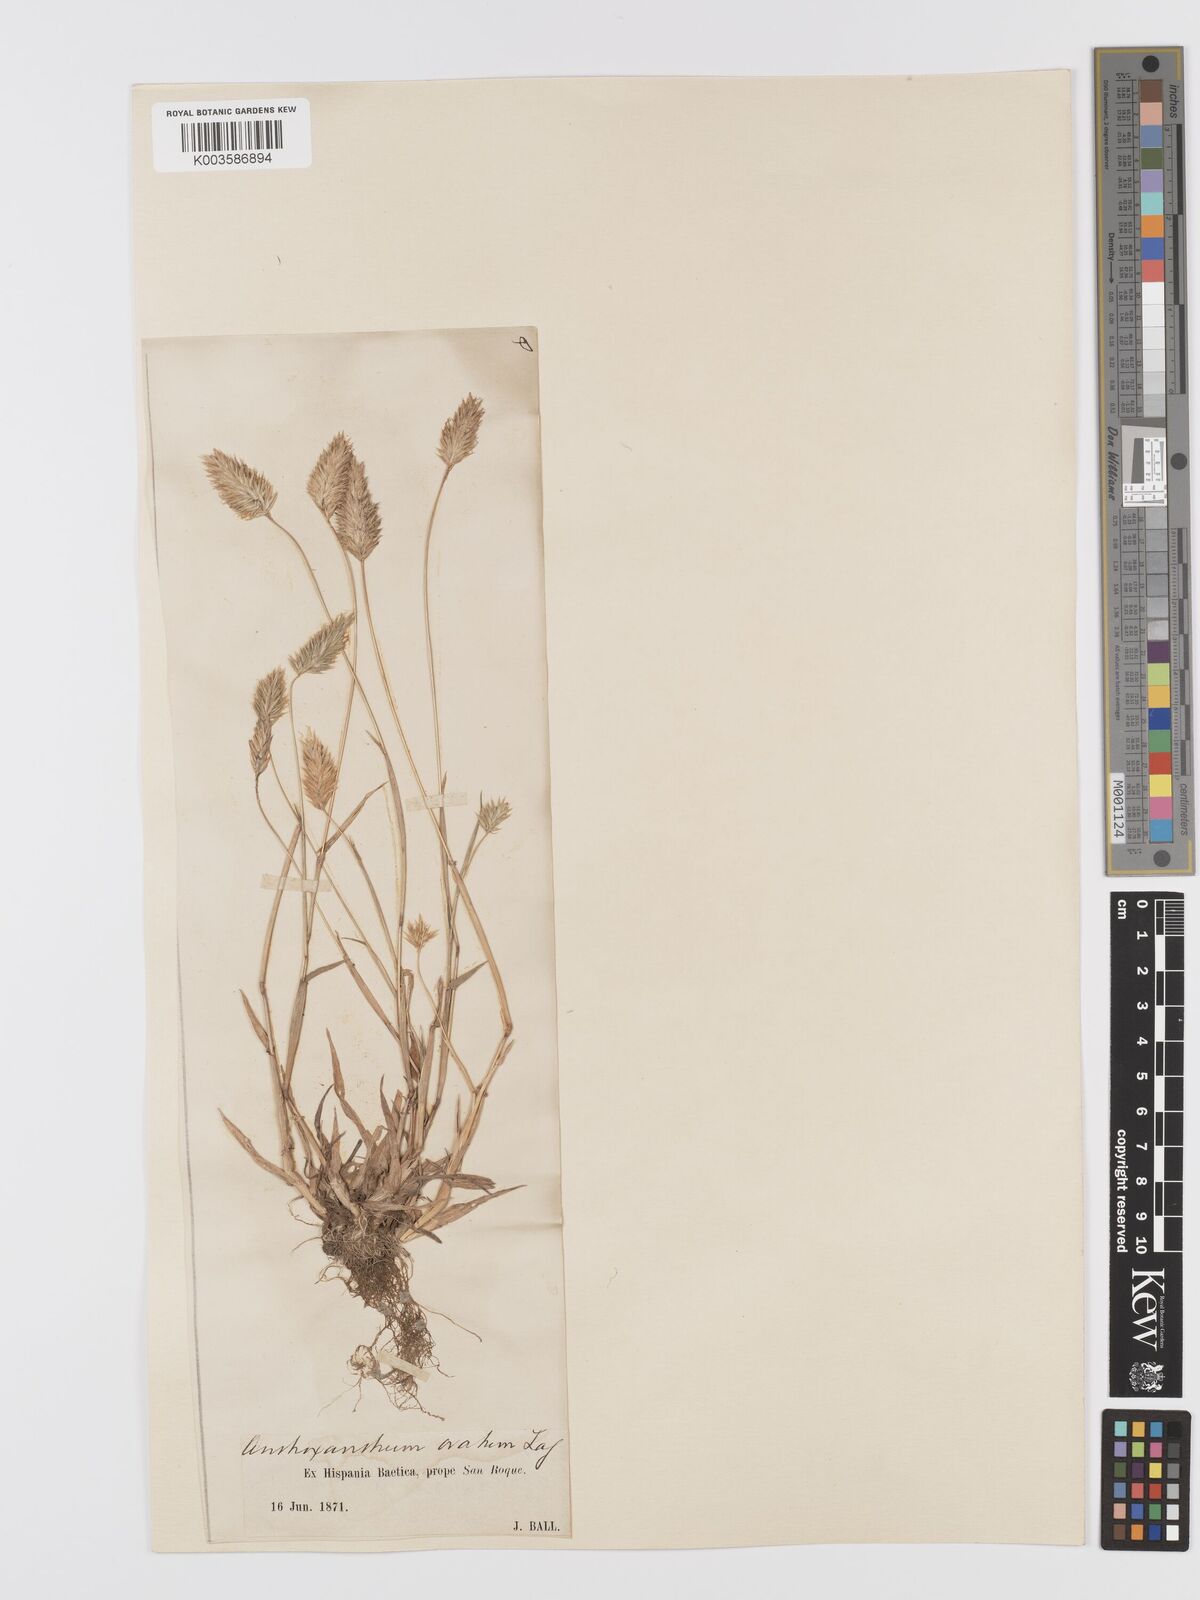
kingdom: Plantae
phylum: Tracheophyta
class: Liliopsida
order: Poales
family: Poaceae
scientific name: Poaceae
